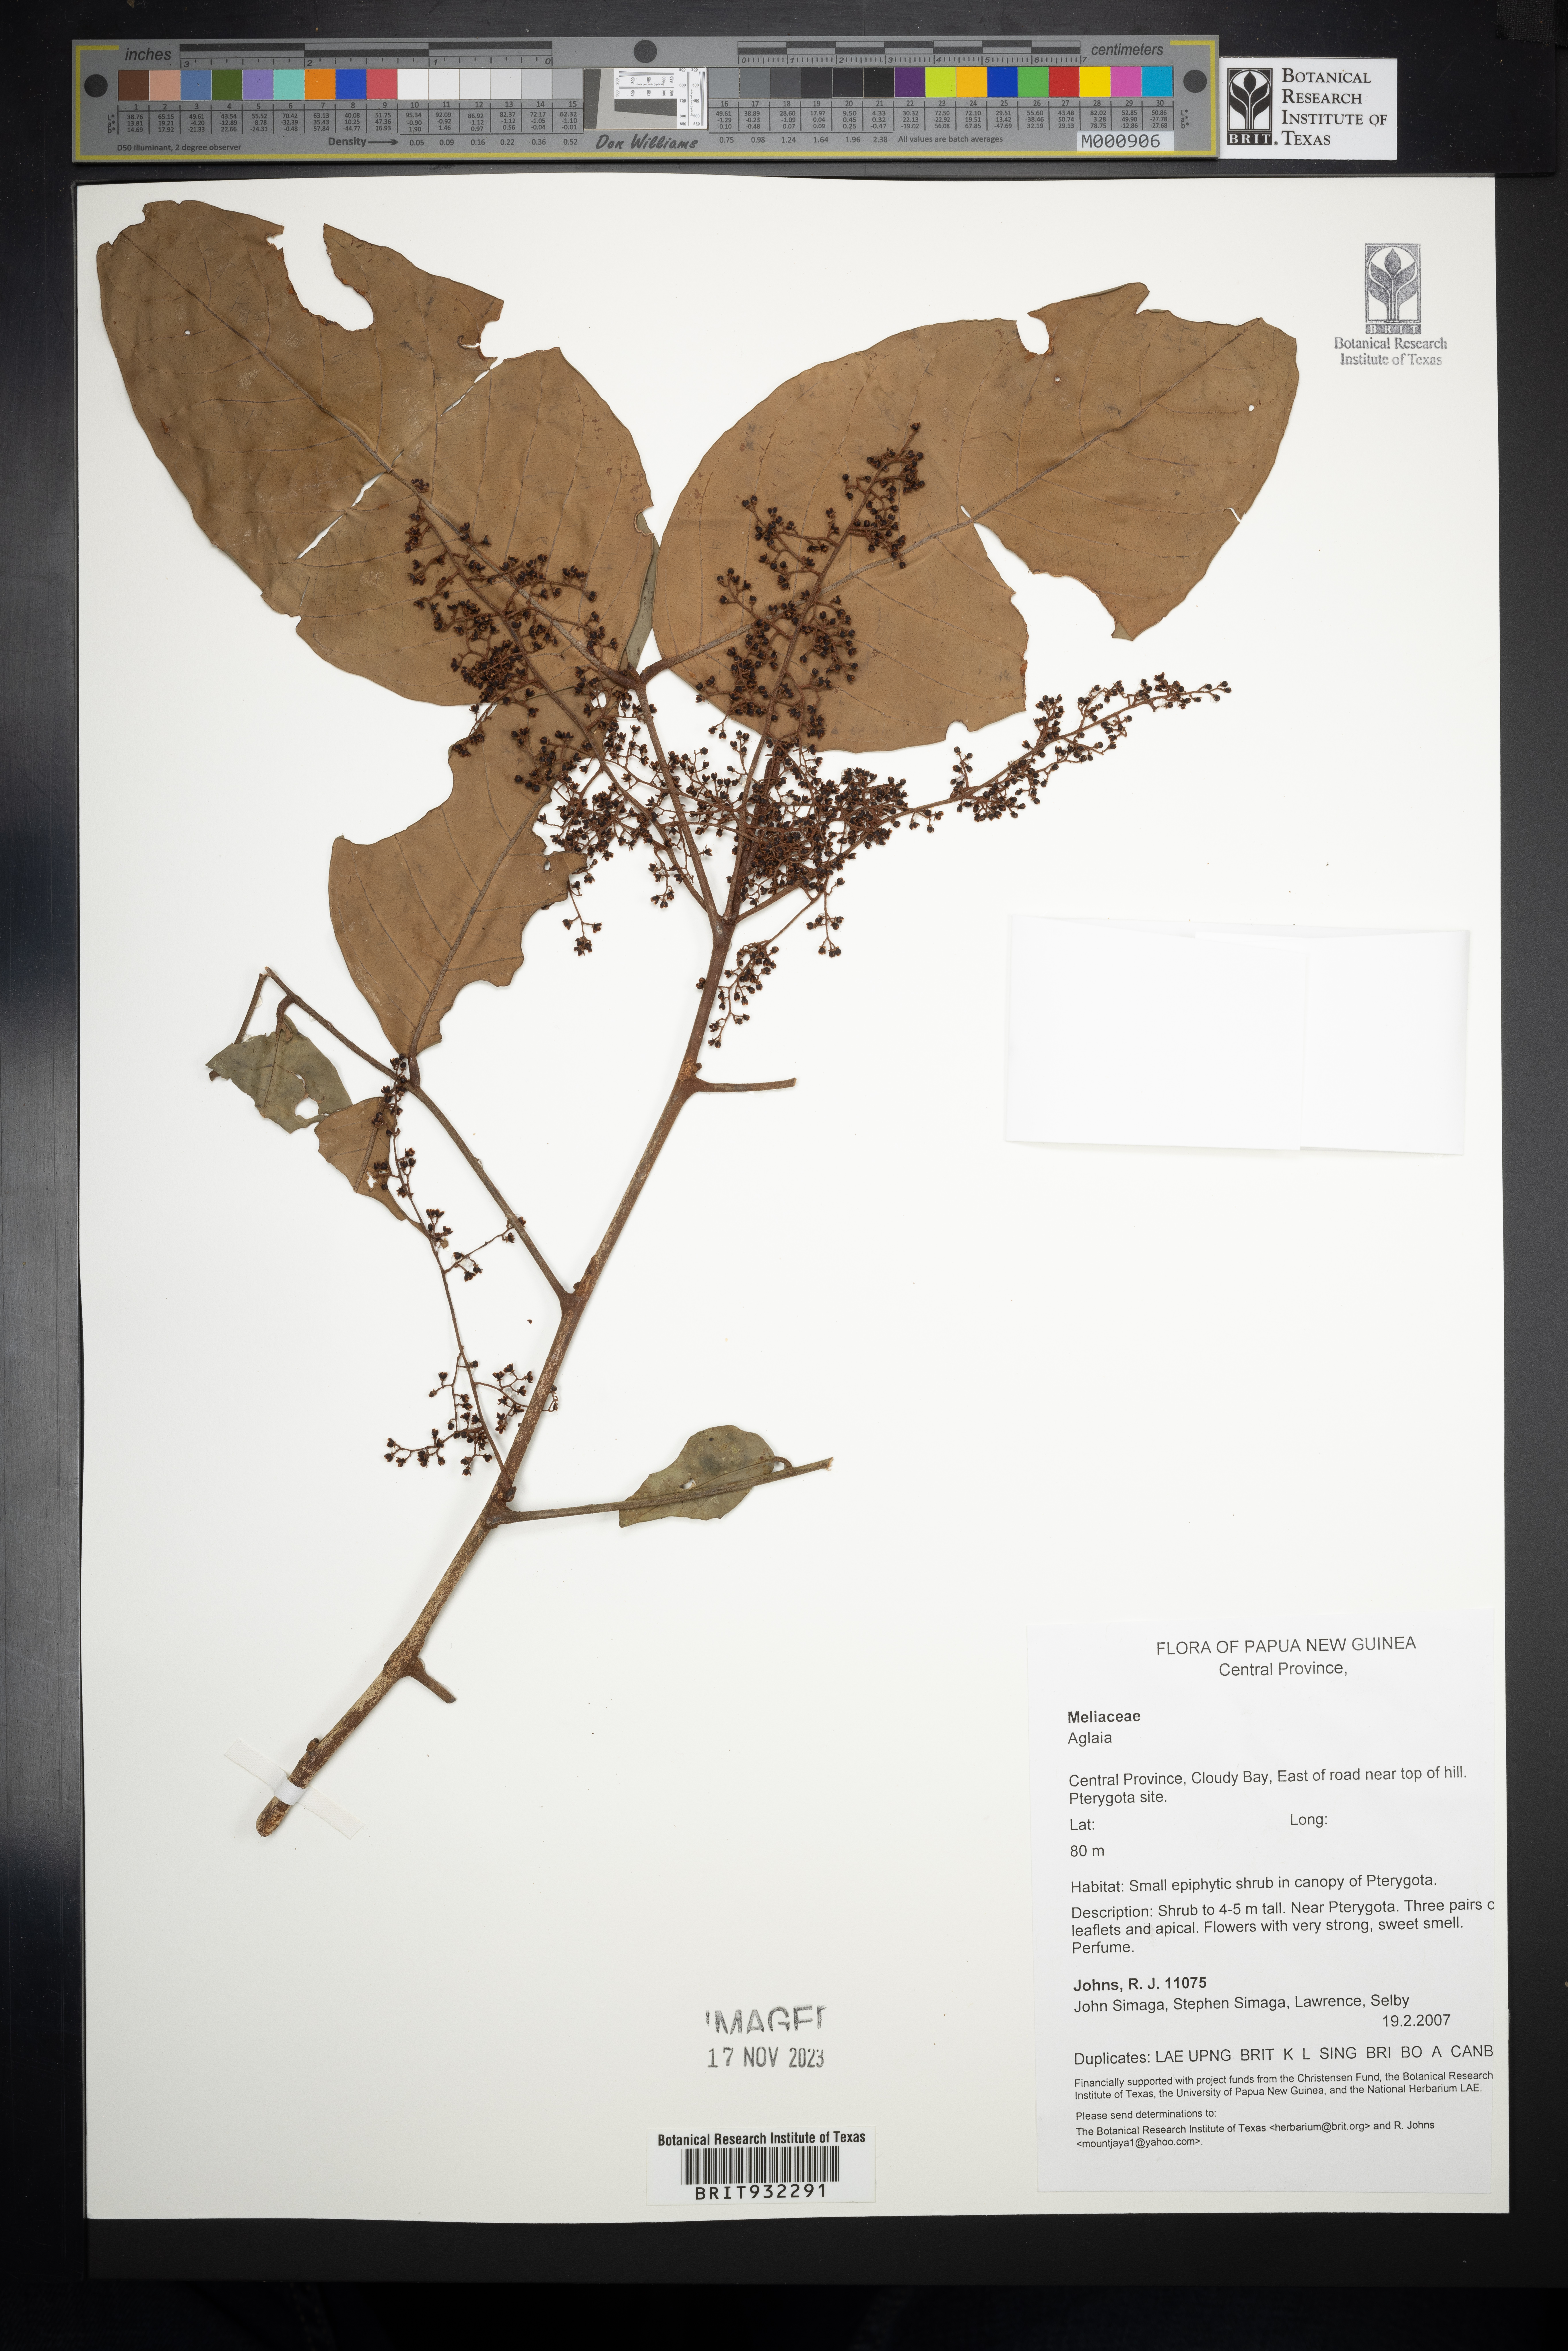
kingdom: Plantae
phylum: Tracheophyta
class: Magnoliopsida
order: Sapindales
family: Meliaceae
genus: Aglaia
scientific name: Aglaia
